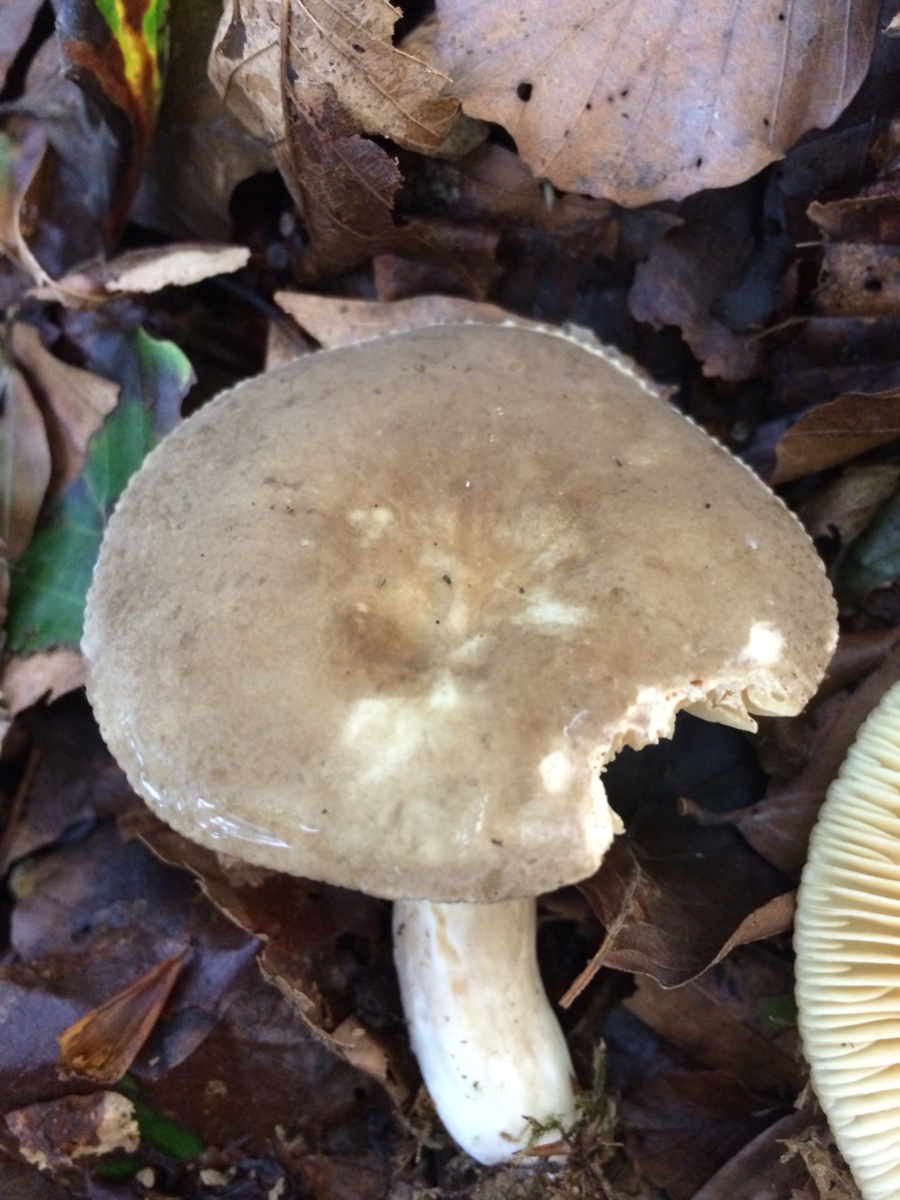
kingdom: Fungi
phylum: Basidiomycota
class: Agaricomycetes
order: Russulales
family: Russulaceae
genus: Lactarius
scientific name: Lactarius pterosporus
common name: vingesporet mælkehat
